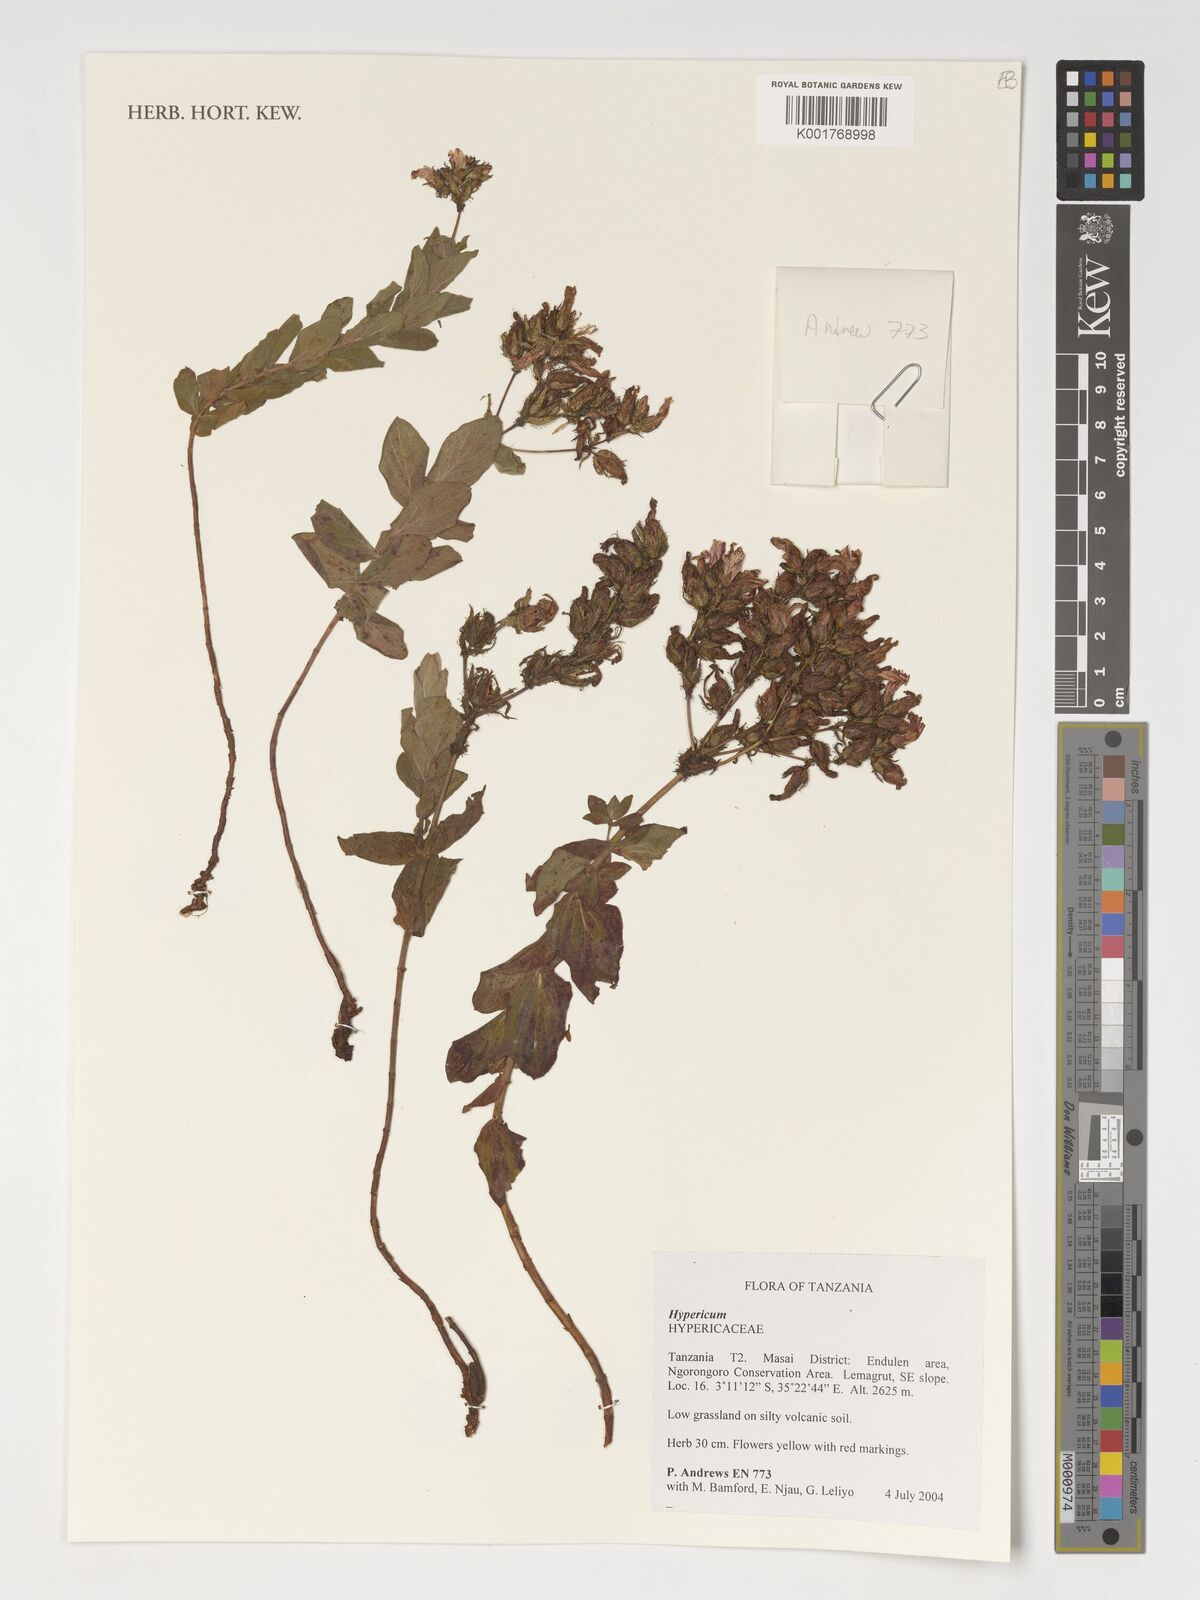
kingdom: Plantae
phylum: Tracheophyta
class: Magnoliopsida
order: Malpighiales
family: Hypericaceae
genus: Hypericum
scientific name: Hypericum
